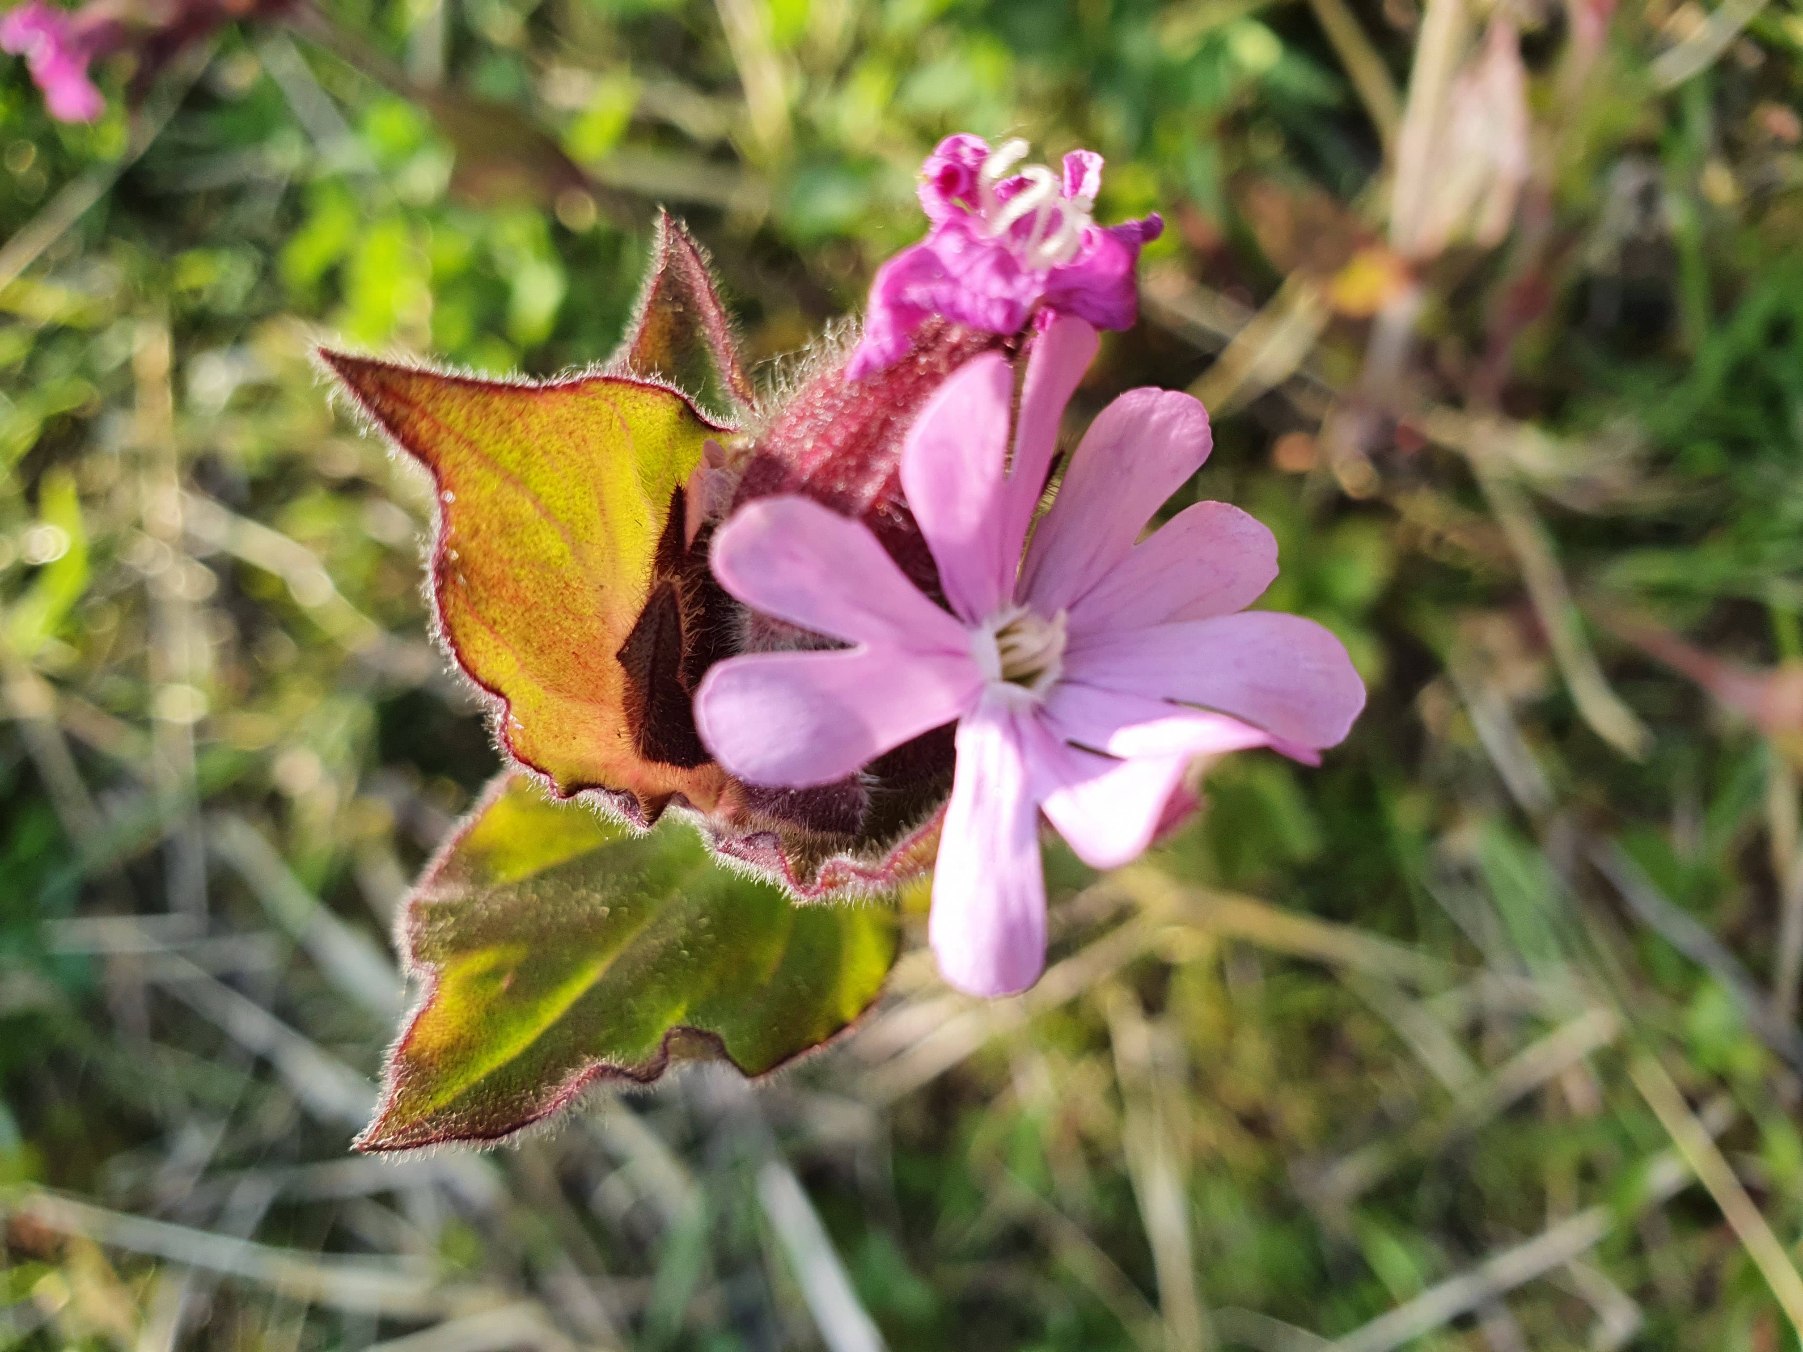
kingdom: Plantae
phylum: Tracheophyta
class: Magnoliopsida
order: Caryophyllales
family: Caryophyllaceae
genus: Silene
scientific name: Silene dioica
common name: Dagpragtstjerne
